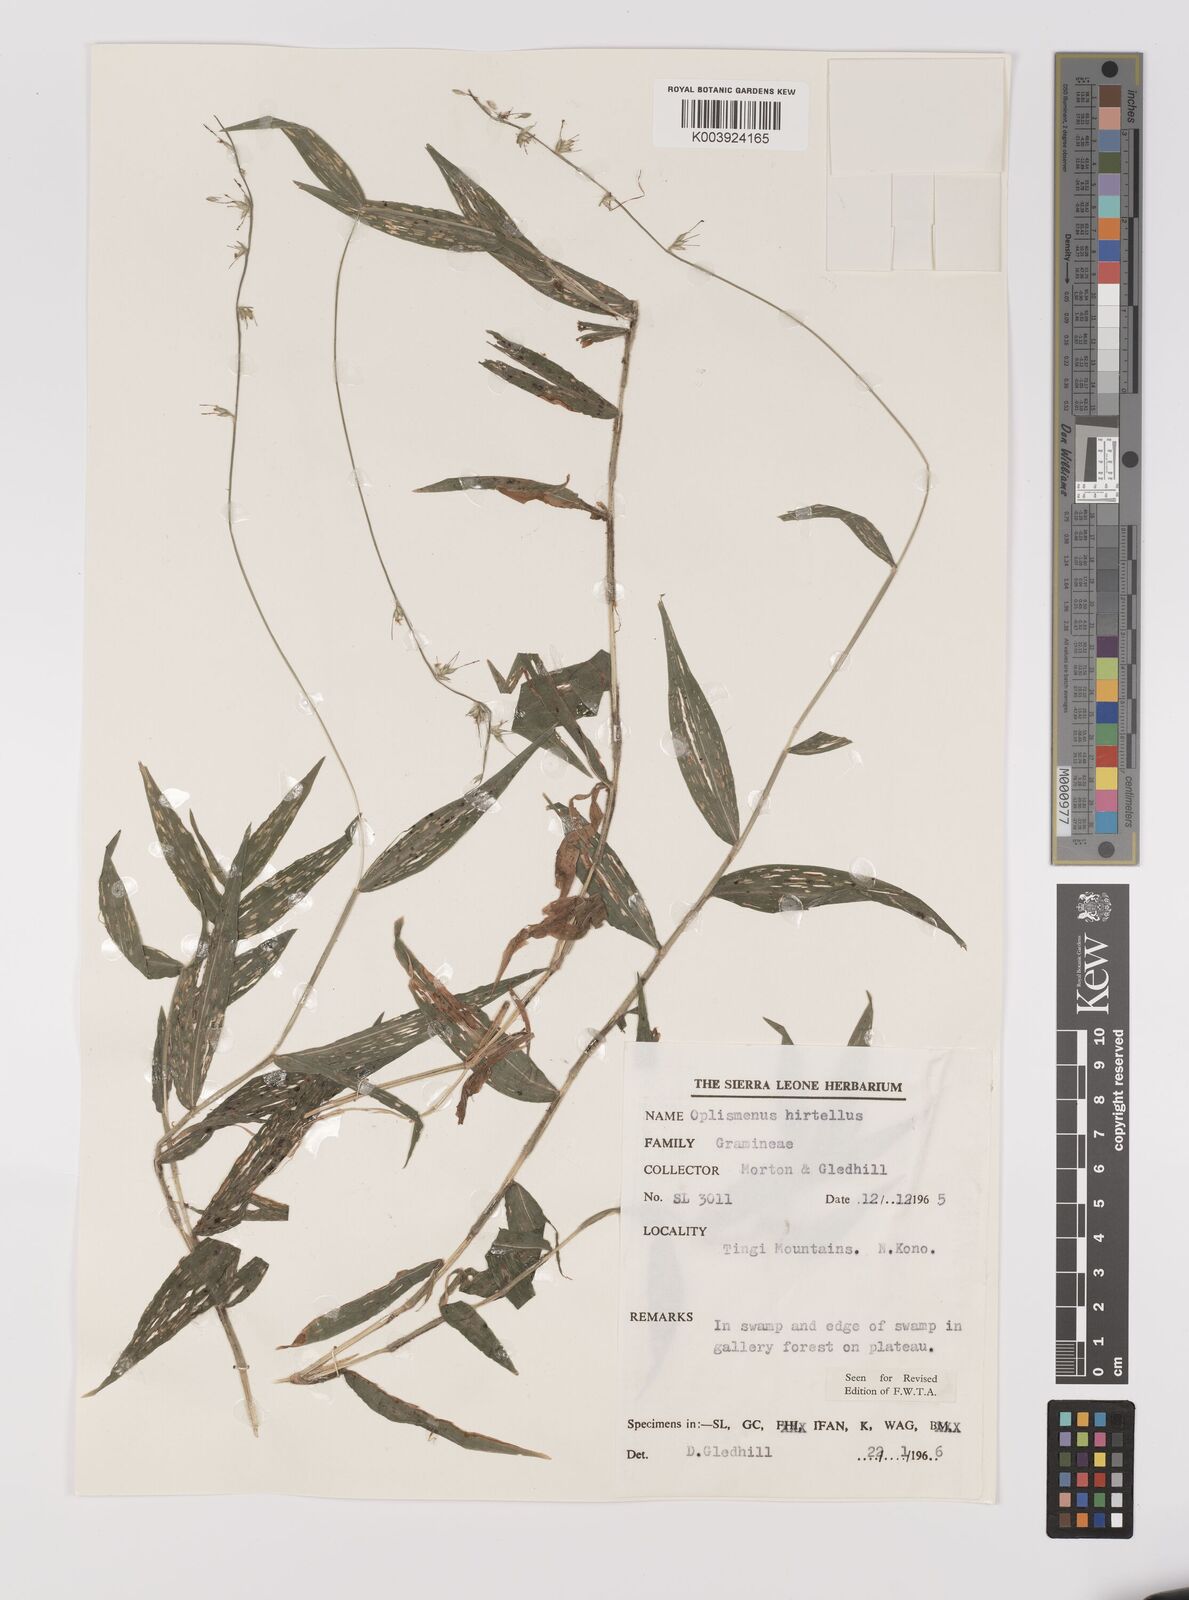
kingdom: Plantae
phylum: Tracheophyta
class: Liliopsida
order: Poales
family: Poaceae
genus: Oplismenus
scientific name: Oplismenus hirtellus
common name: Basketgrass
